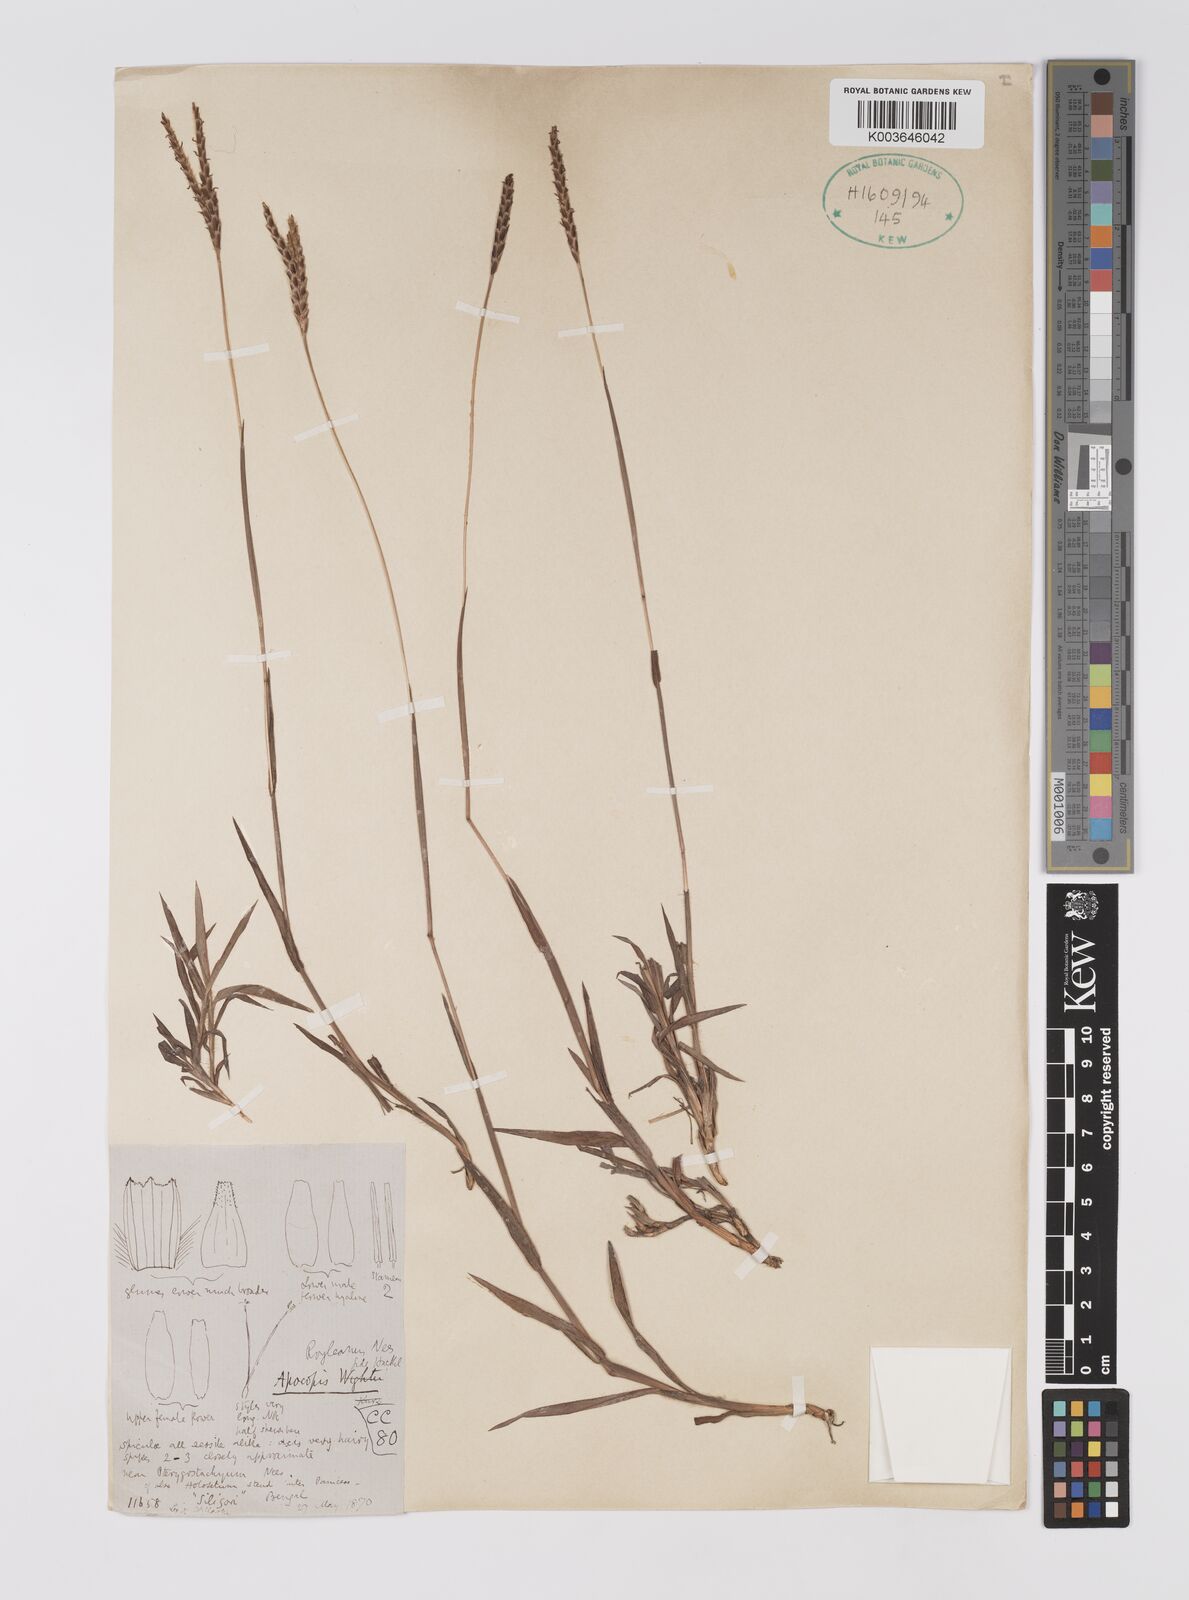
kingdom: Plantae
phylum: Tracheophyta
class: Liliopsida
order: Poales
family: Poaceae
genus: Apocopis
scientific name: Apocopis paleaceus
